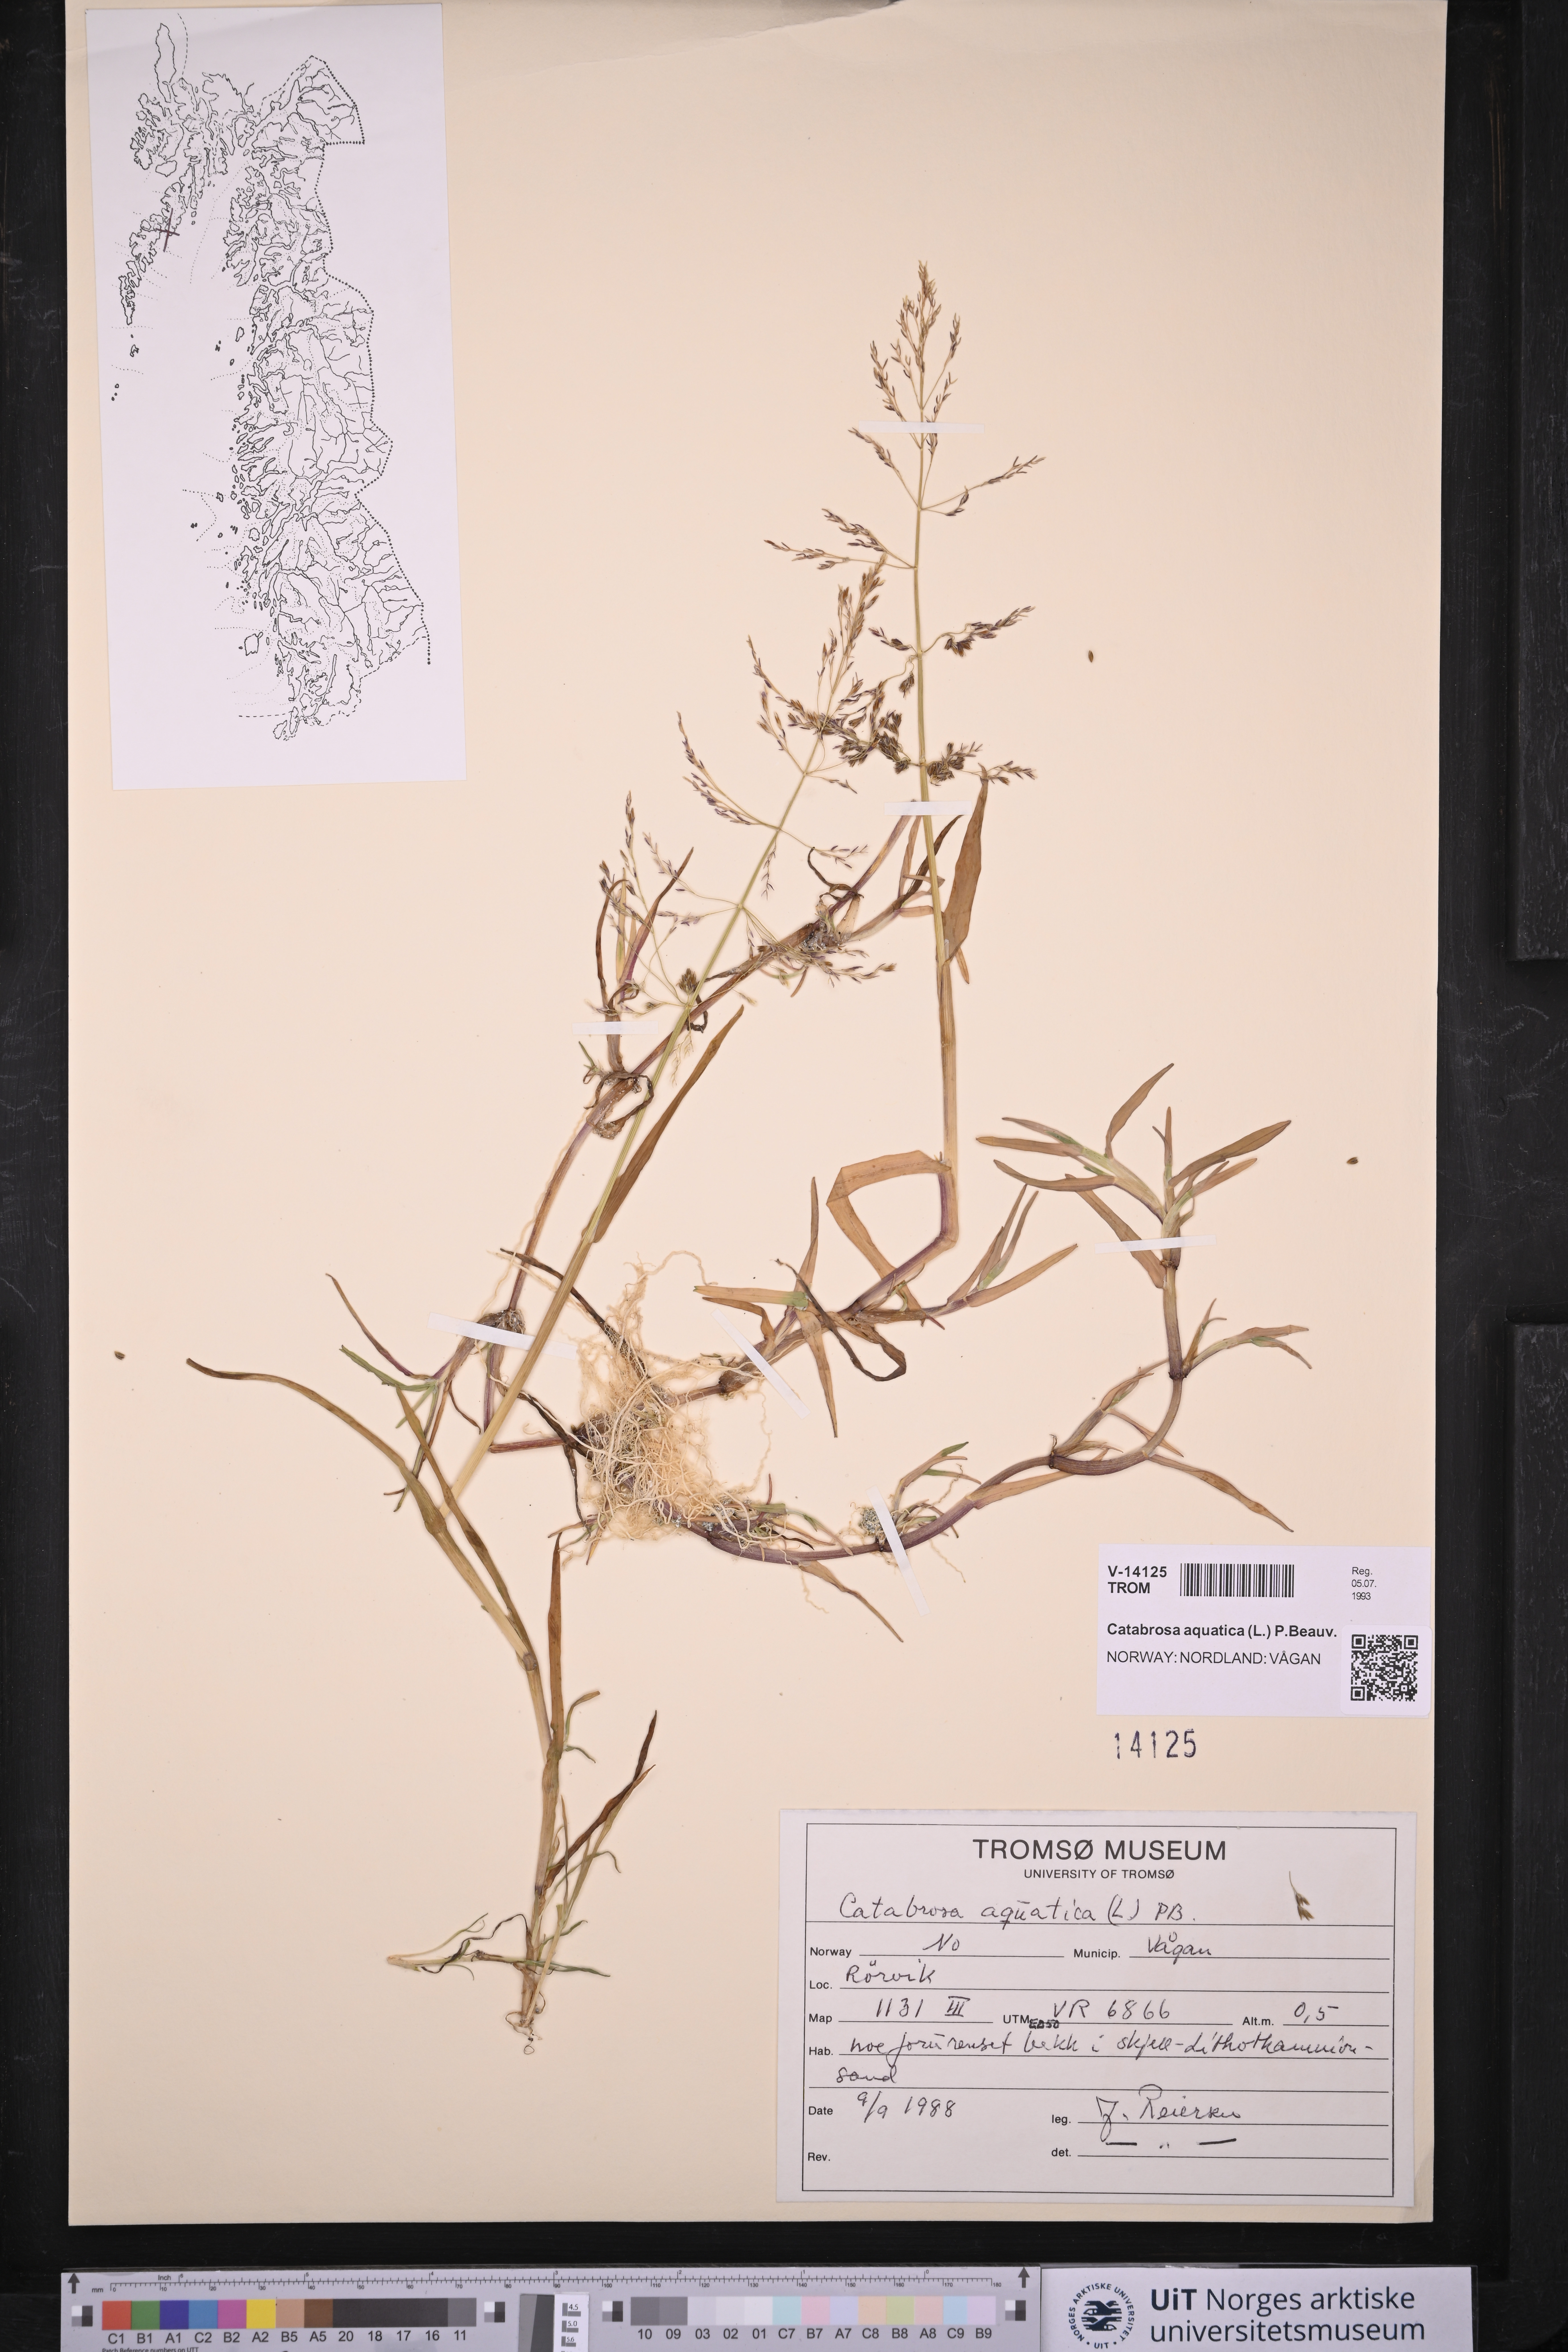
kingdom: Plantae
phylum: Tracheophyta
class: Liliopsida
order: Poales
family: Poaceae
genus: Catabrosa
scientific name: Catabrosa aquatica
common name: Whorl-grass
